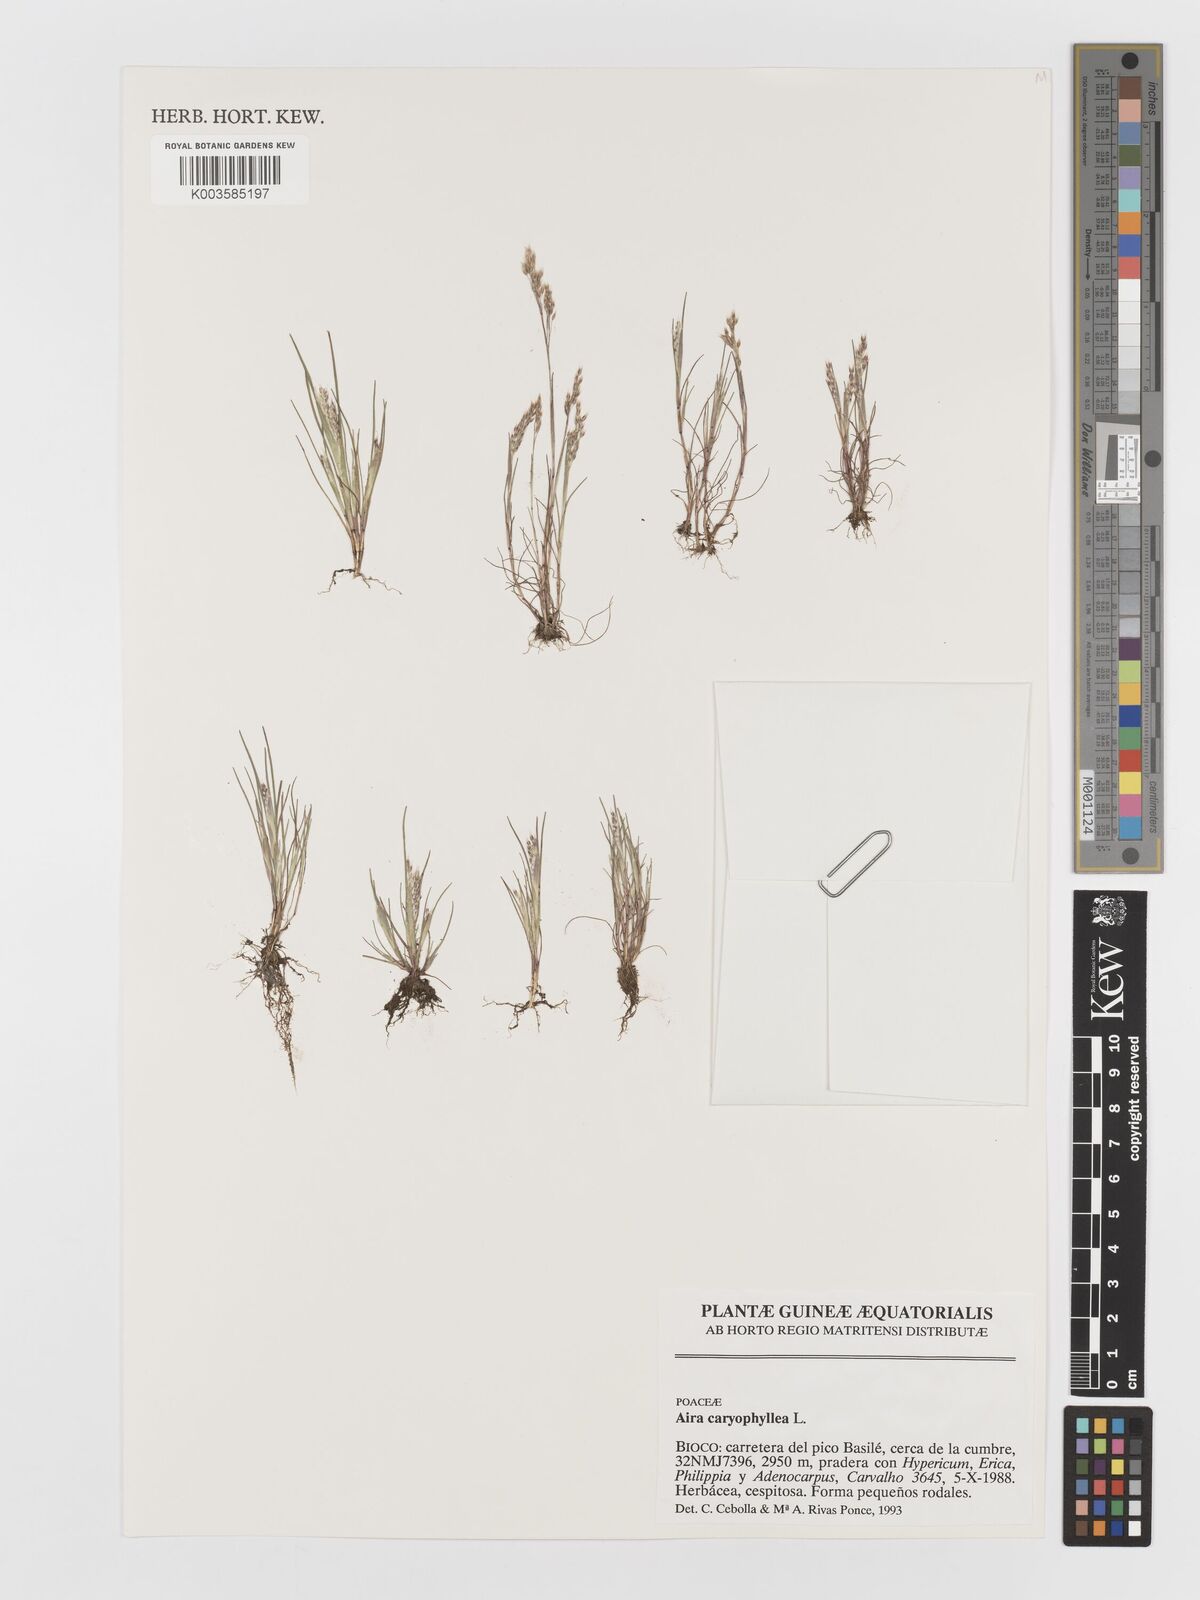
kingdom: Plantae
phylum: Tracheophyta
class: Liliopsida
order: Poales
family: Poaceae
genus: Aira
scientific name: Aira caryophyllea
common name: Silver hairgrass
